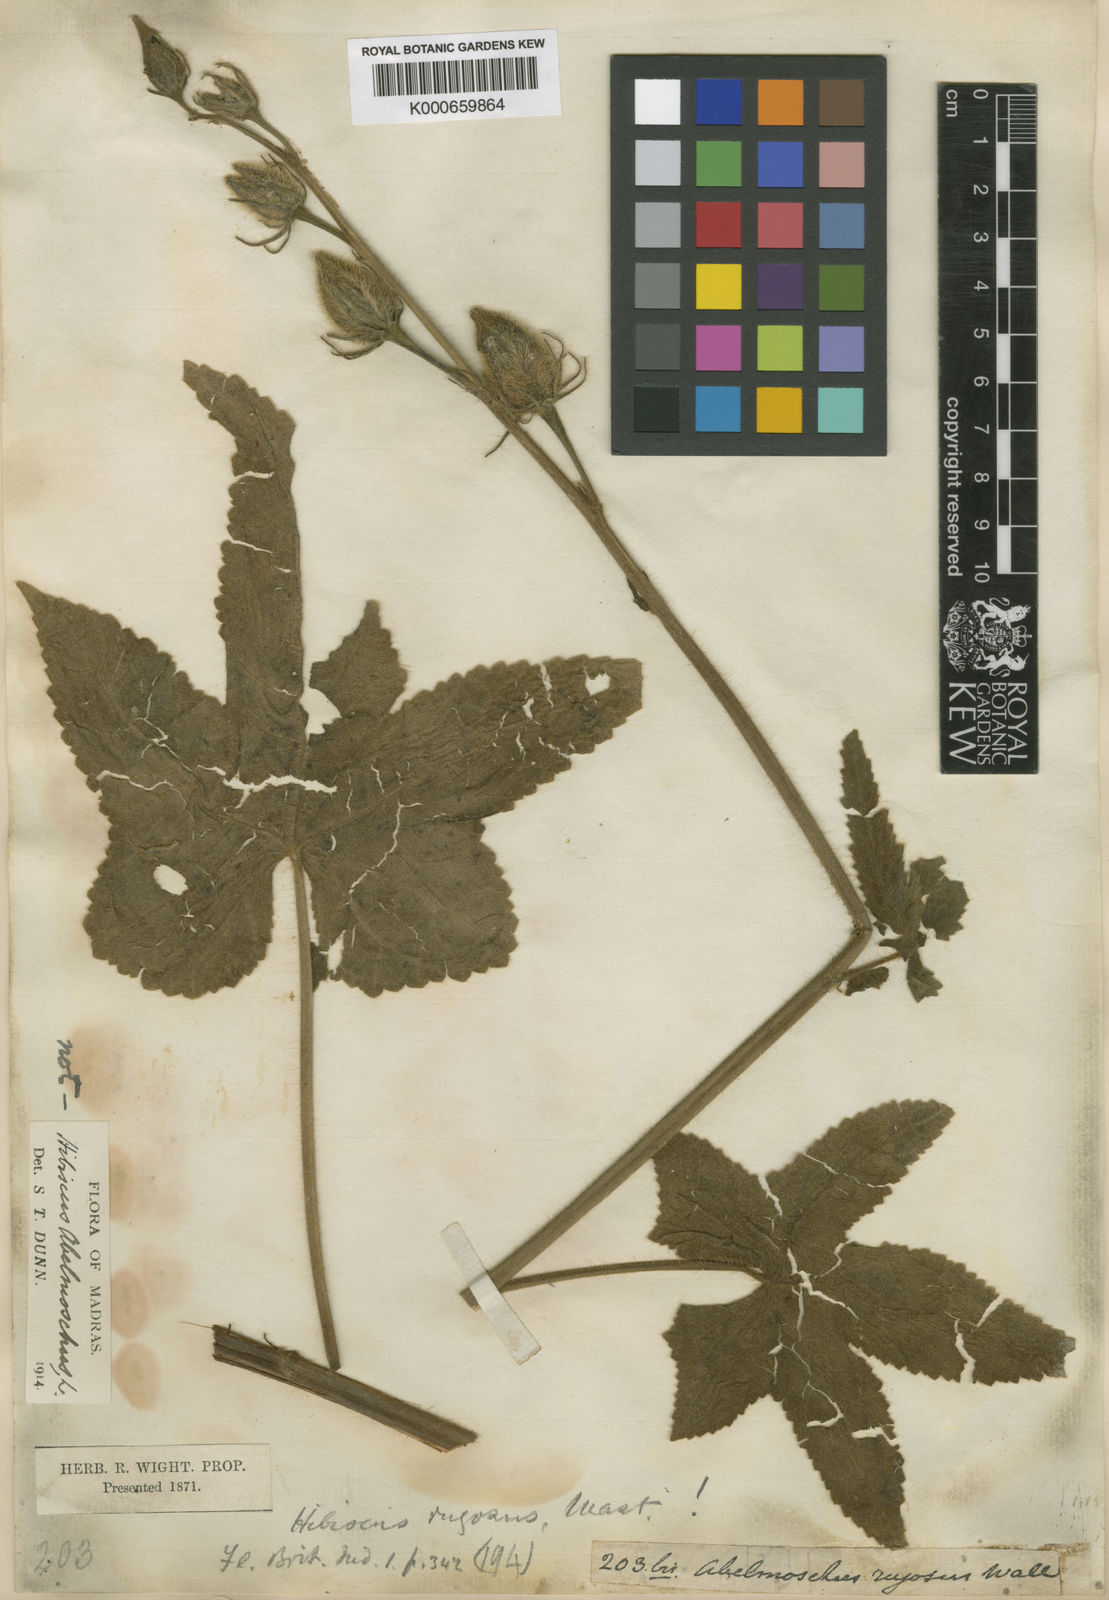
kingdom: Plantae
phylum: Tracheophyta
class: Magnoliopsida
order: Malvales
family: Malvaceae
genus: Abelmoschus
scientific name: Abelmoschus sagittifolius
